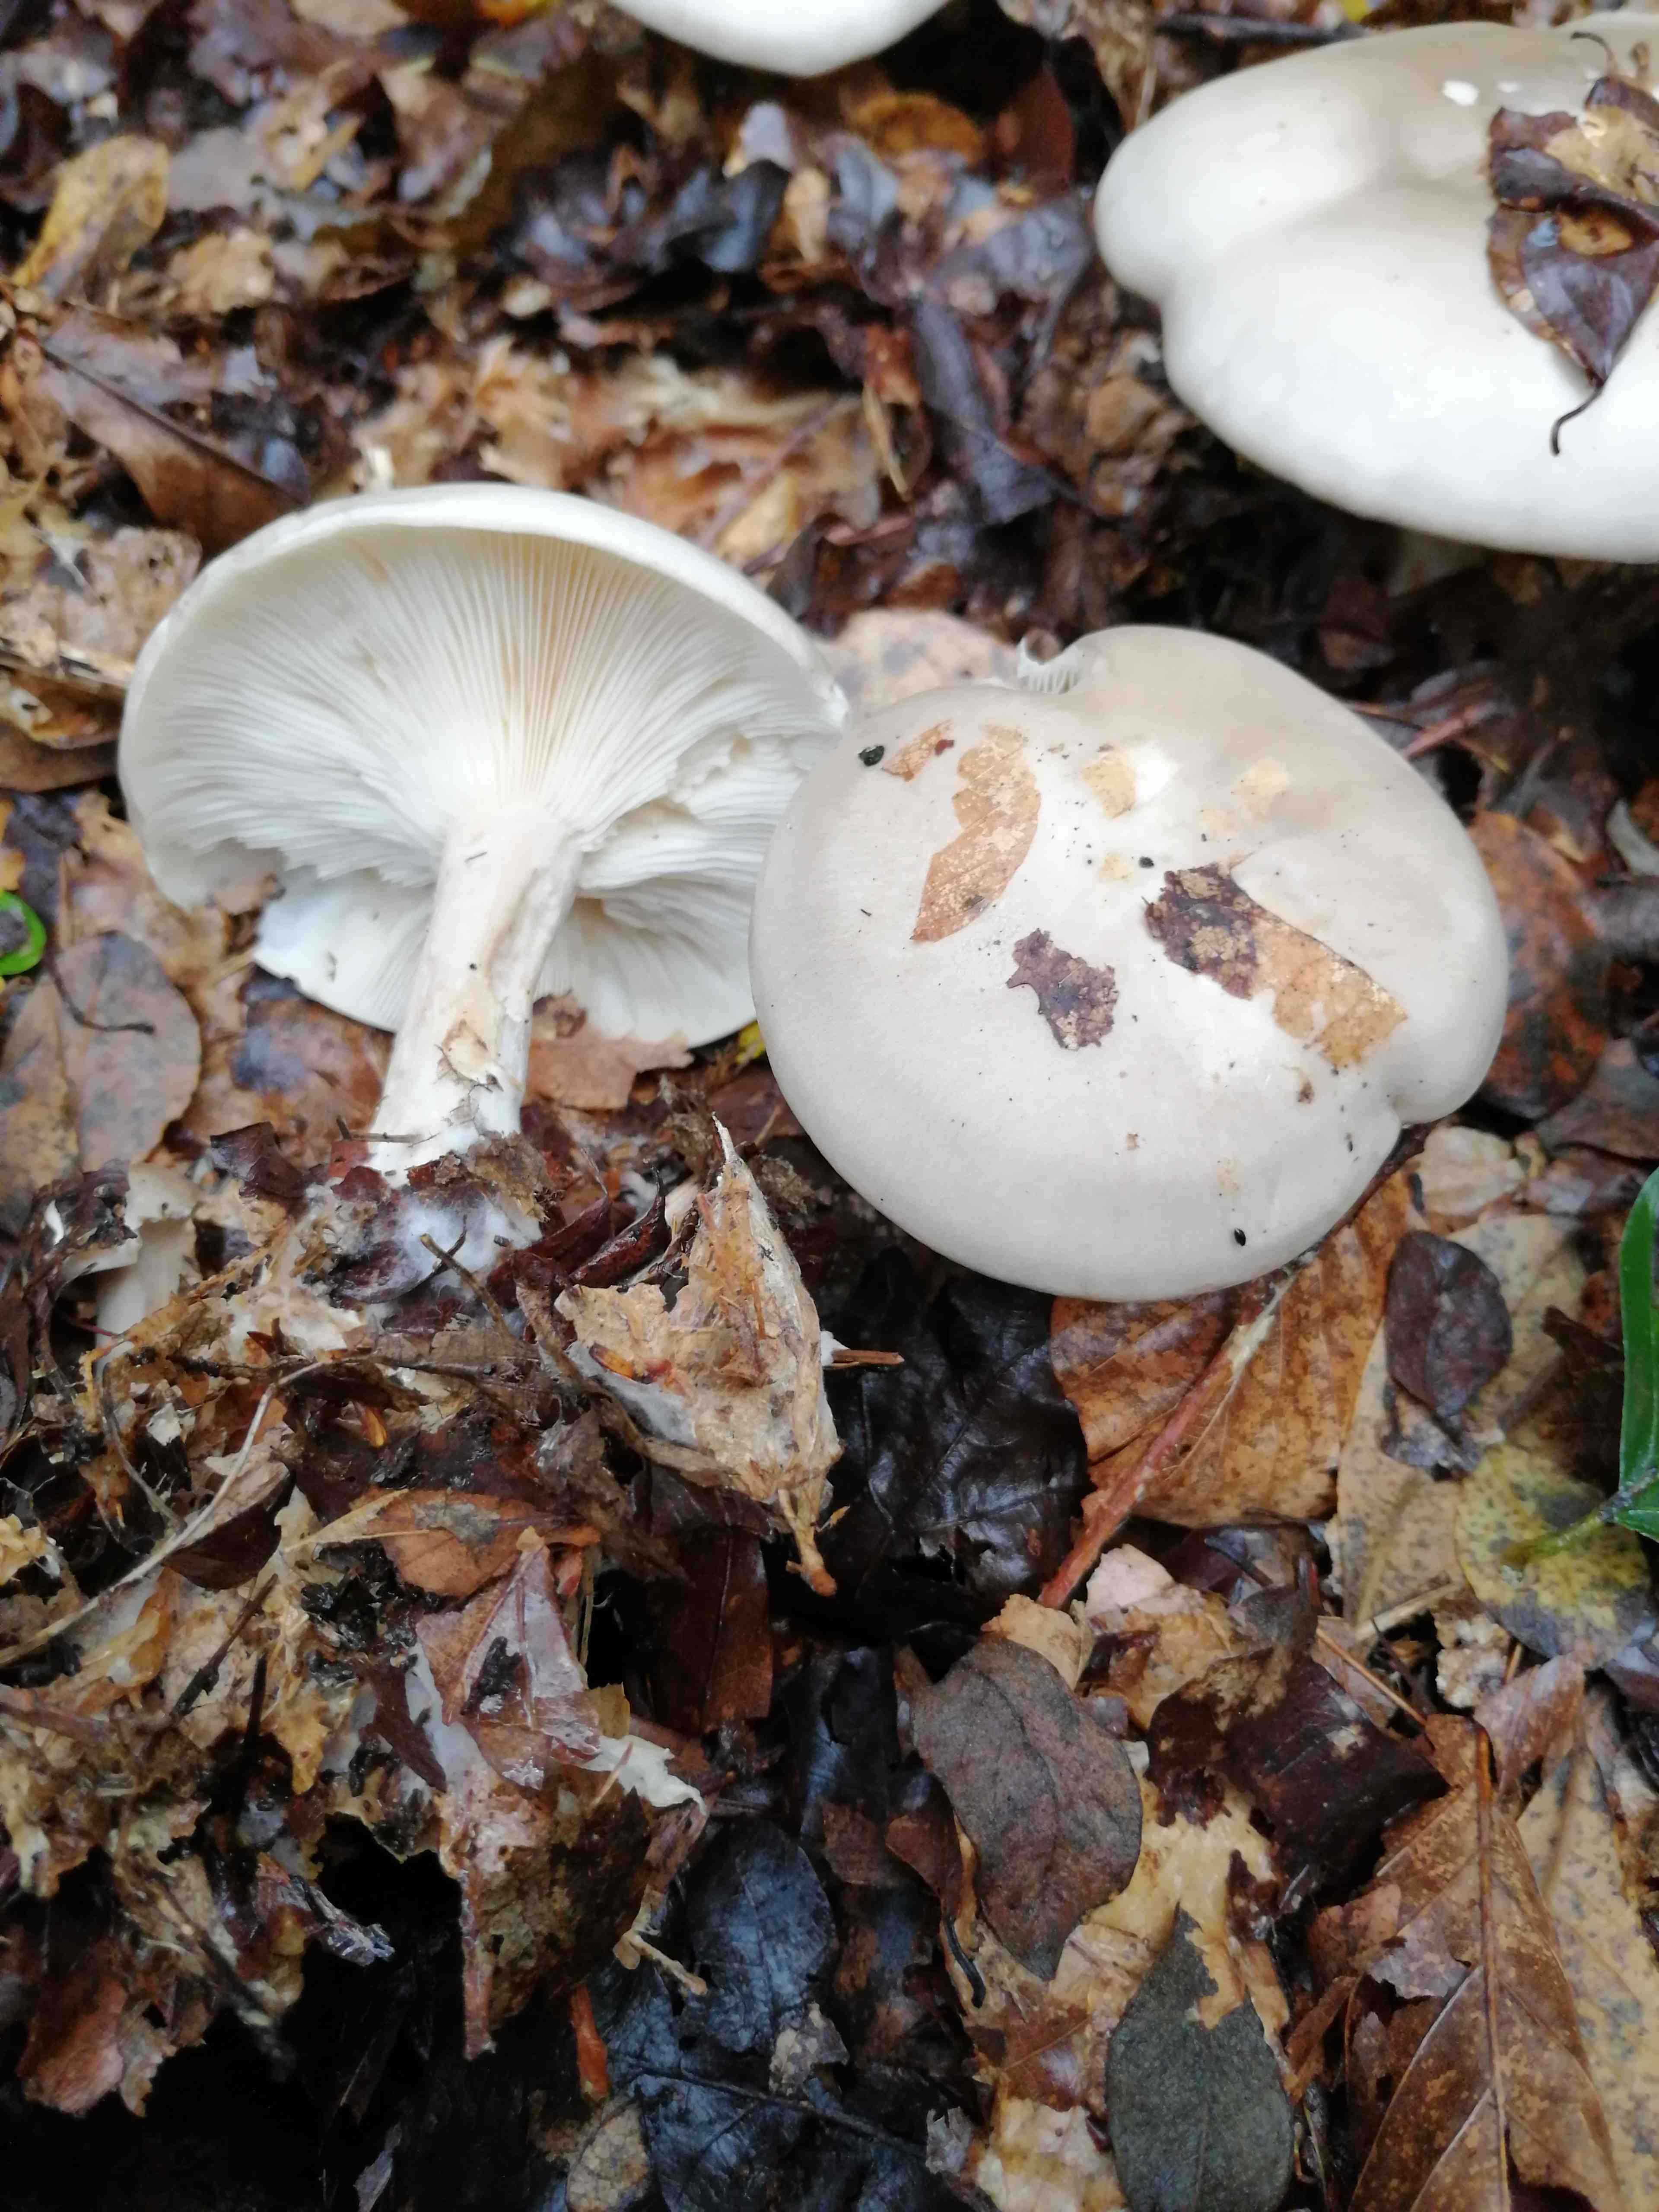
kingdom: Fungi
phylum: Basidiomycota
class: Agaricomycetes
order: Agaricales
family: Tricholomataceae
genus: Clitocybe
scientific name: Clitocybe nebularis
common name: tåge-tragthat
